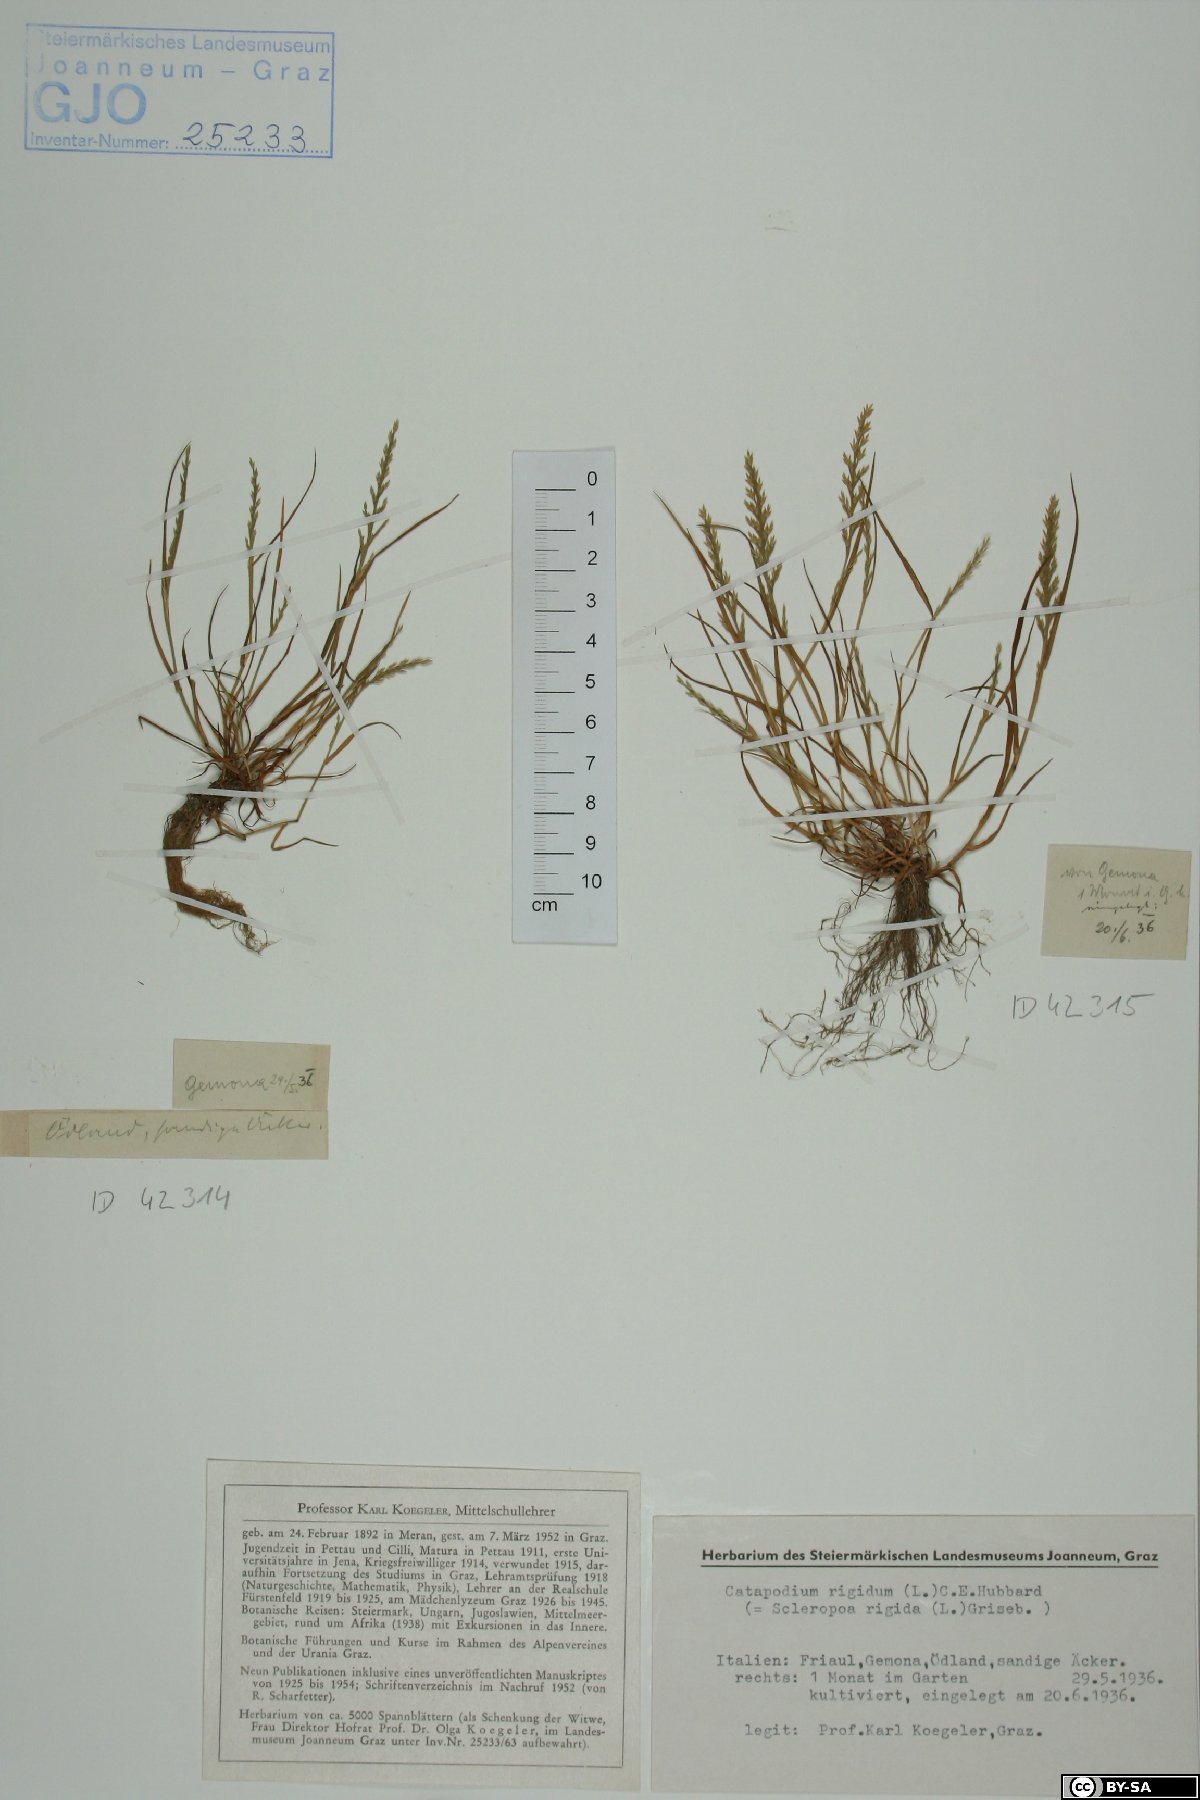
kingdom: Plantae
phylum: Tracheophyta
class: Liliopsida
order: Poales
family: Poaceae
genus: Catapodium
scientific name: Catapodium rigidum
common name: Fern-grass
